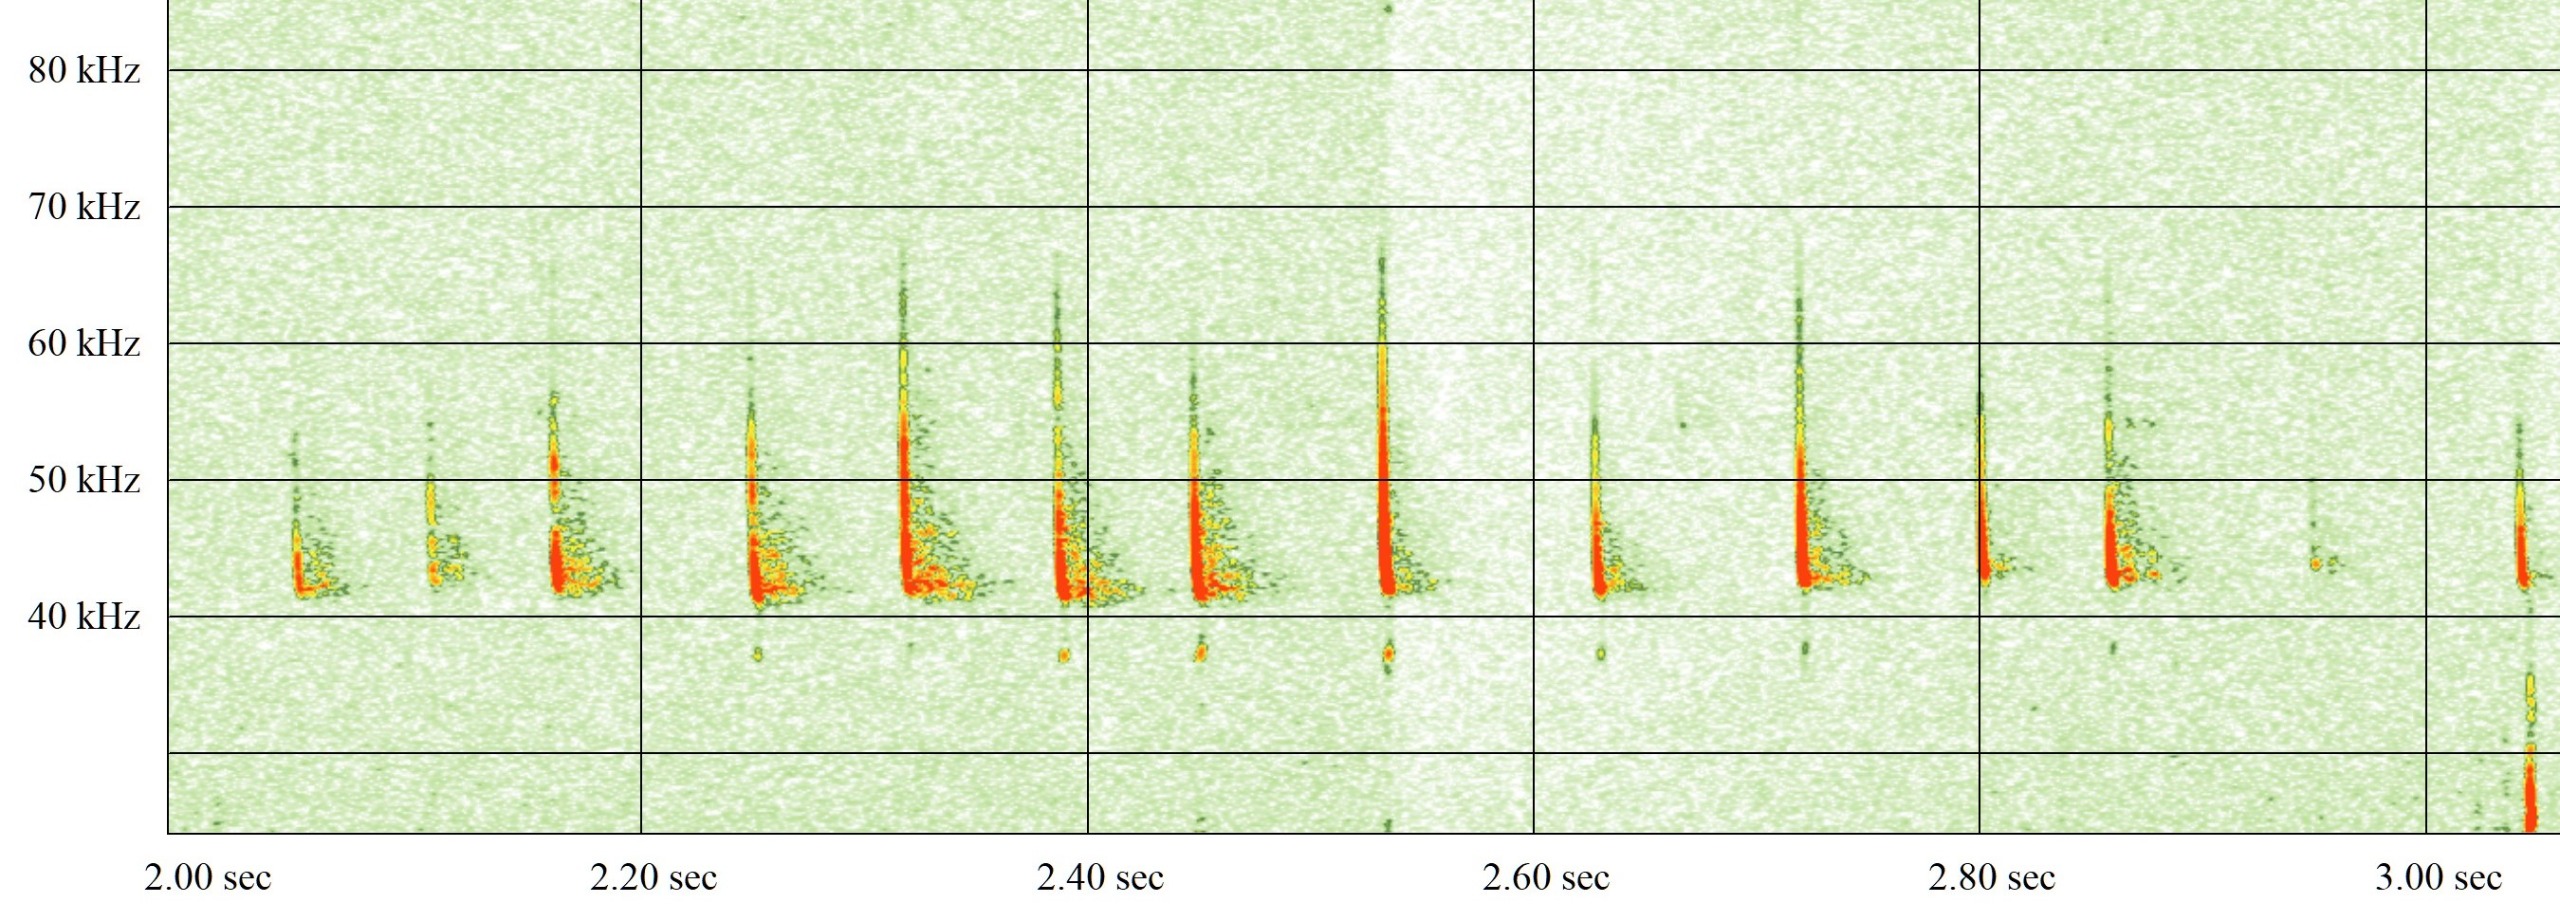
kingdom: Animalia
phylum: Chordata
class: Mammalia
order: Chiroptera
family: Vespertilionidae
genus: Pipistrellus
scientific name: Pipistrellus nathusii
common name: Troldflagermus
